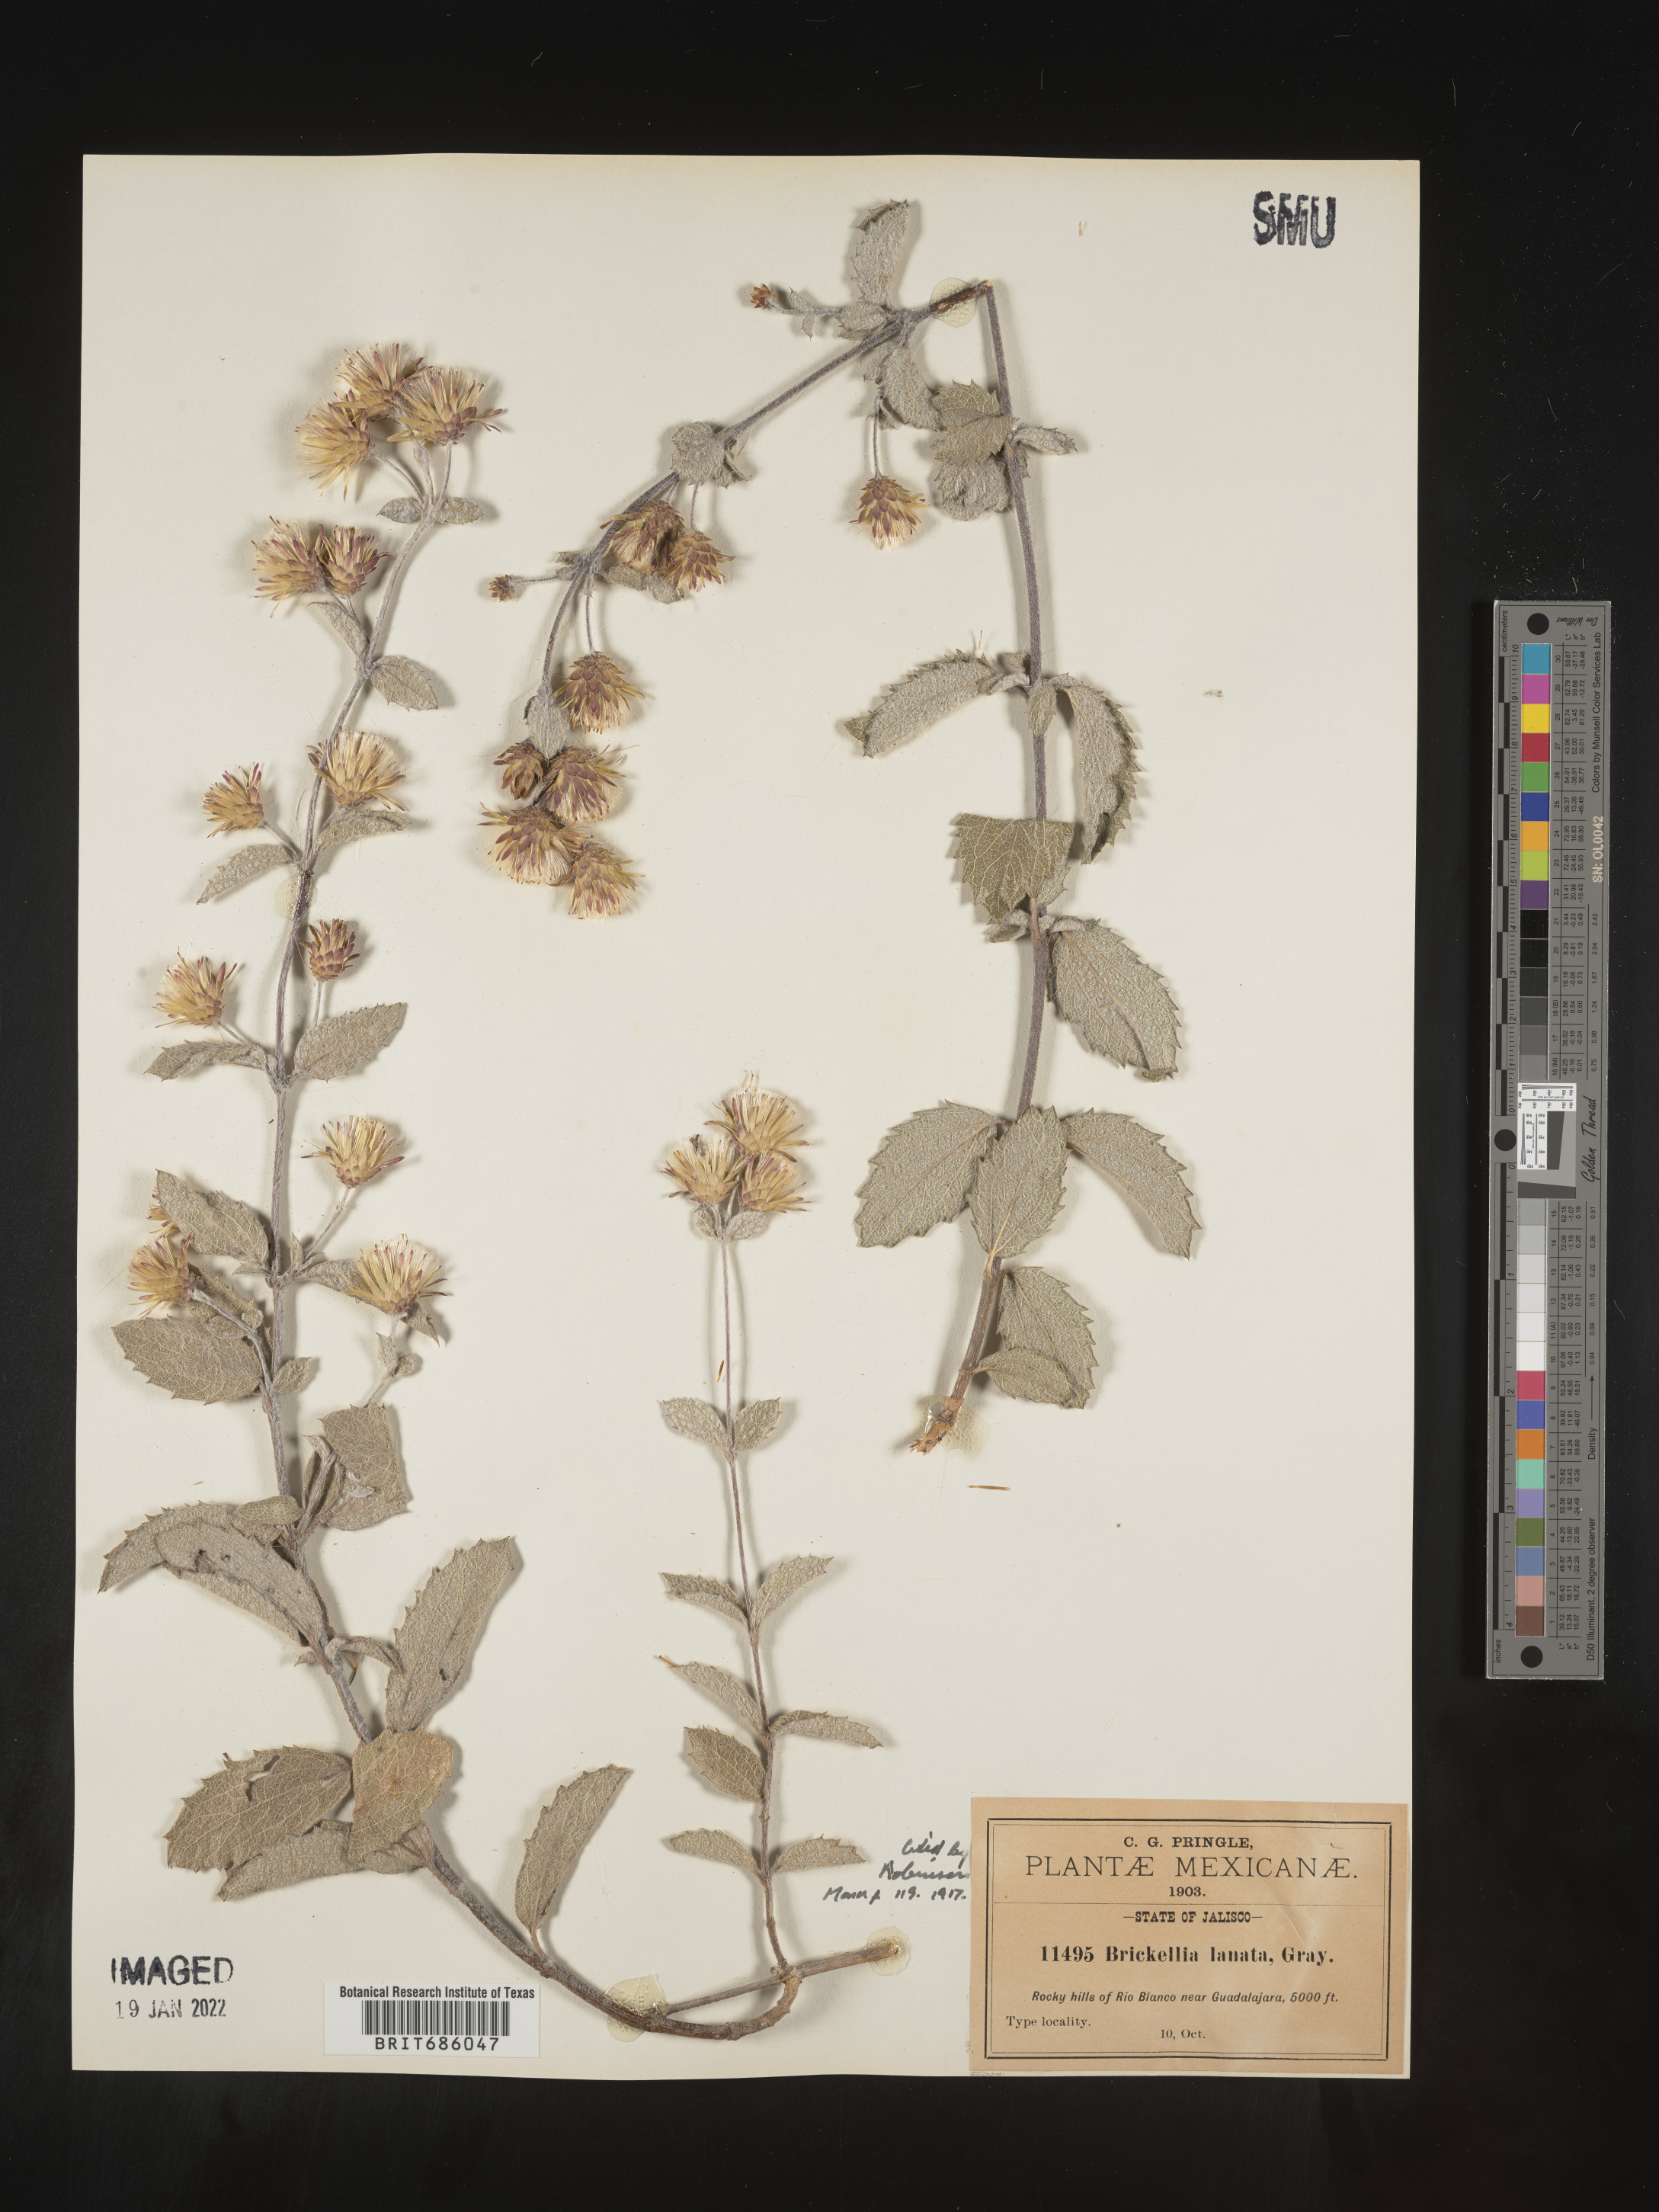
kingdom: Plantae
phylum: Tracheophyta
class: Magnoliopsida
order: Asterales
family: Asteraceae
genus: Brickellia
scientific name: Brickellia
